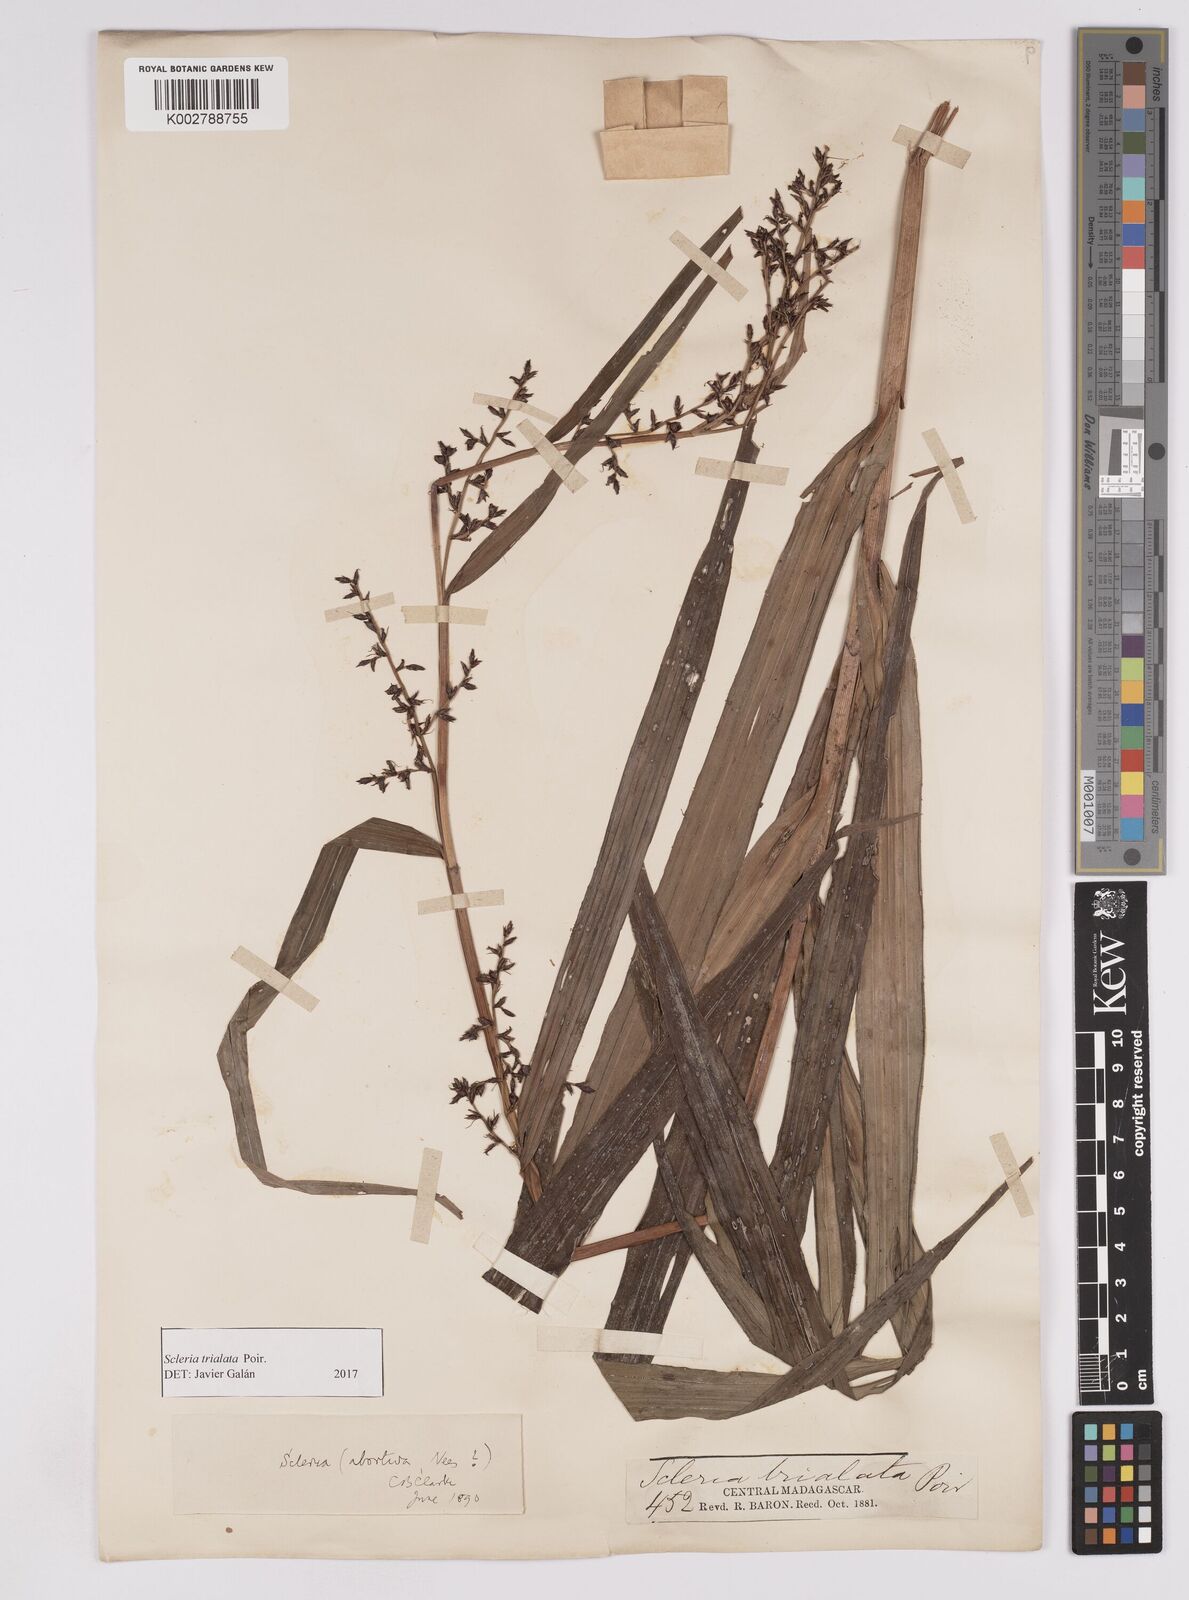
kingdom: Plantae
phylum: Tracheophyta
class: Liliopsida
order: Poales
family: Cyperaceae
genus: Scleria
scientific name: Scleria trialata
